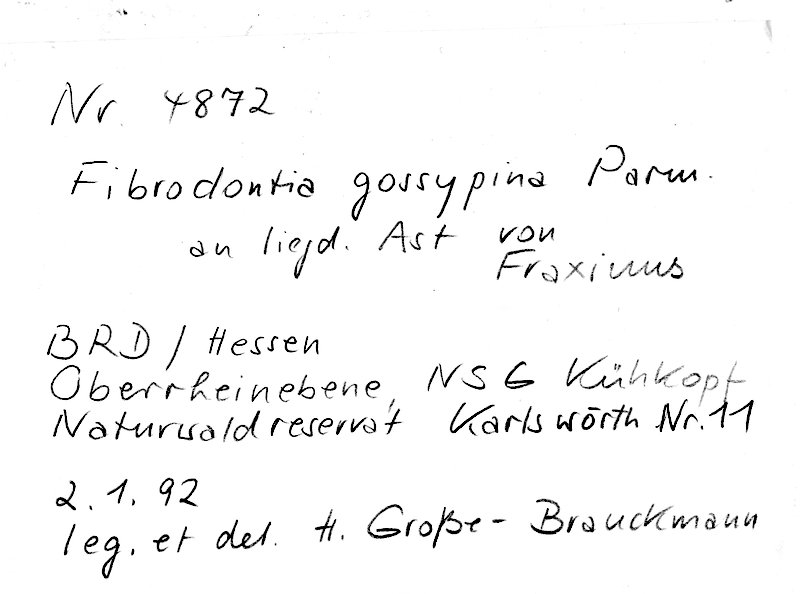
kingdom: Fungi
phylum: Basidiomycota
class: Agaricomycetes
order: Hymenochaetales
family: Schizoporaceae
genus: Fibrodontia
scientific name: Fibrodontia gossypina
